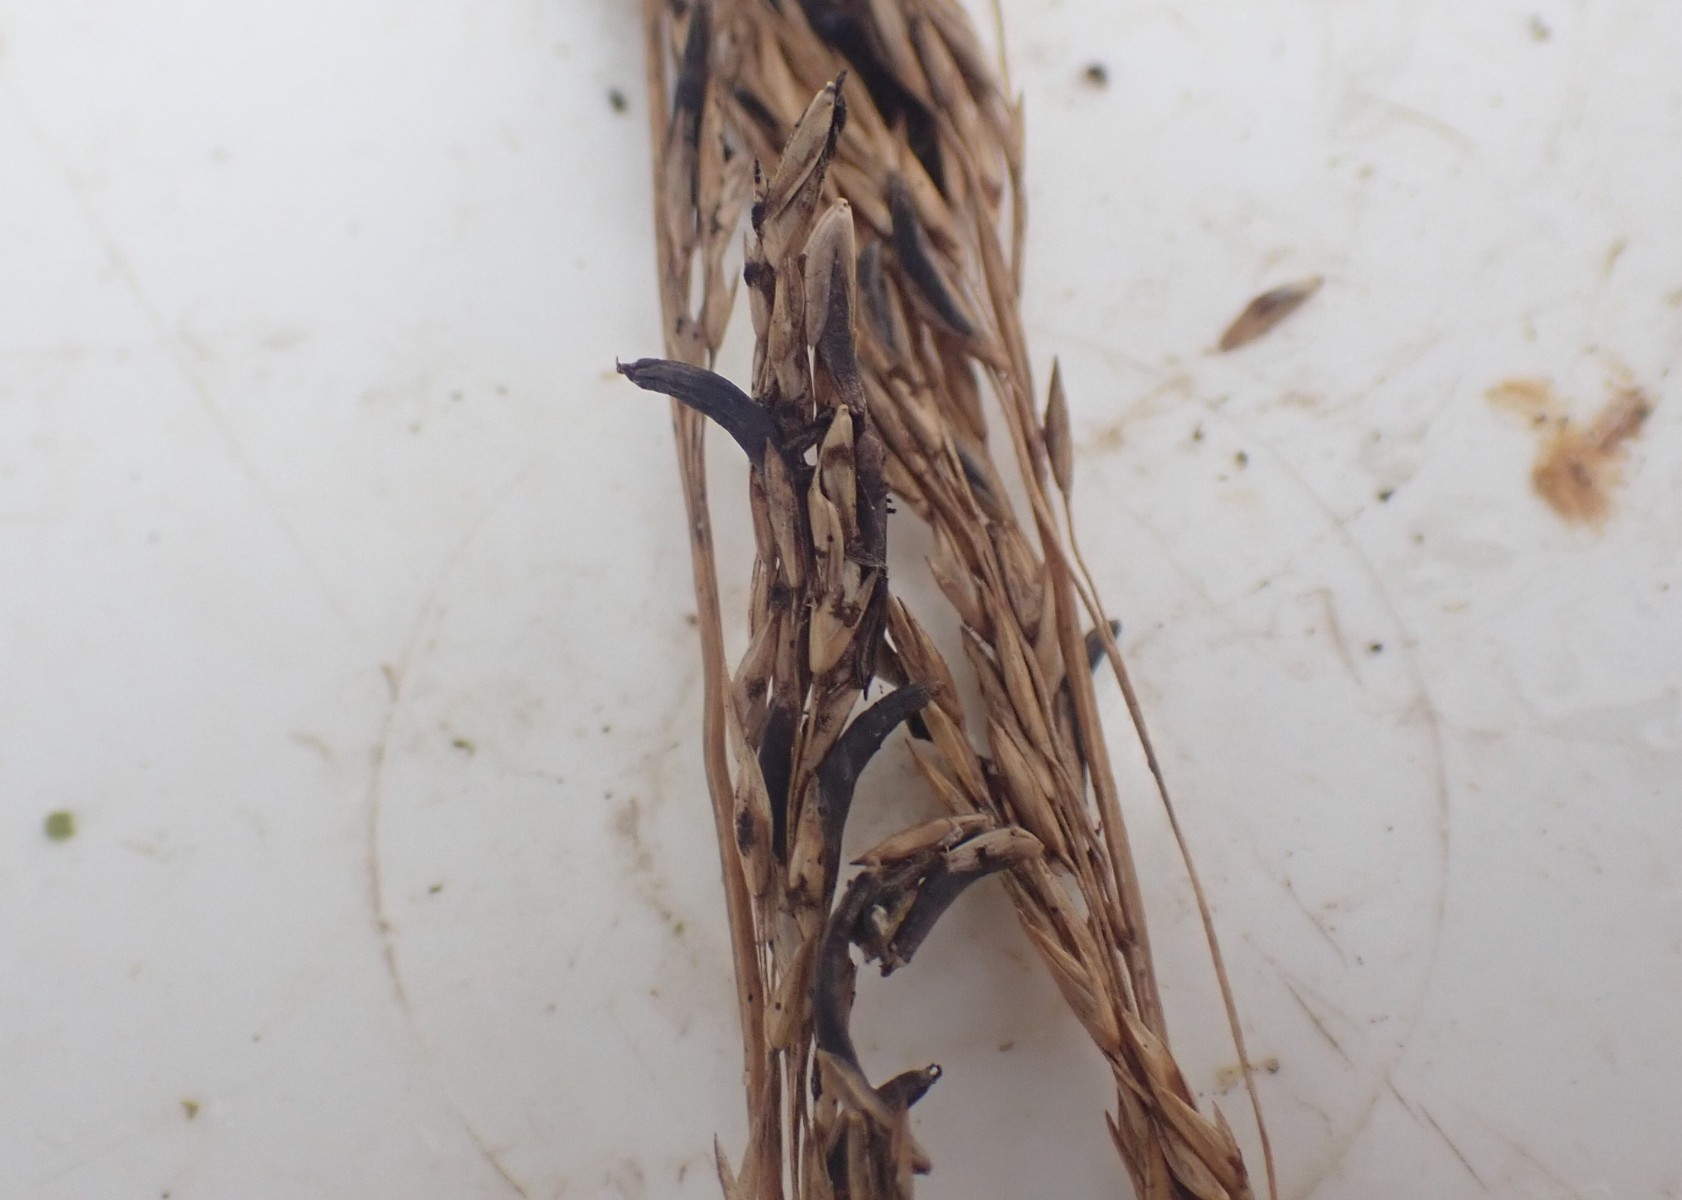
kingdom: Fungi
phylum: Ascomycota
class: Sordariomycetes
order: Hypocreales
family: Clavicipitaceae
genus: Claviceps
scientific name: Claviceps purpurea
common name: almindelig meldrøjer
